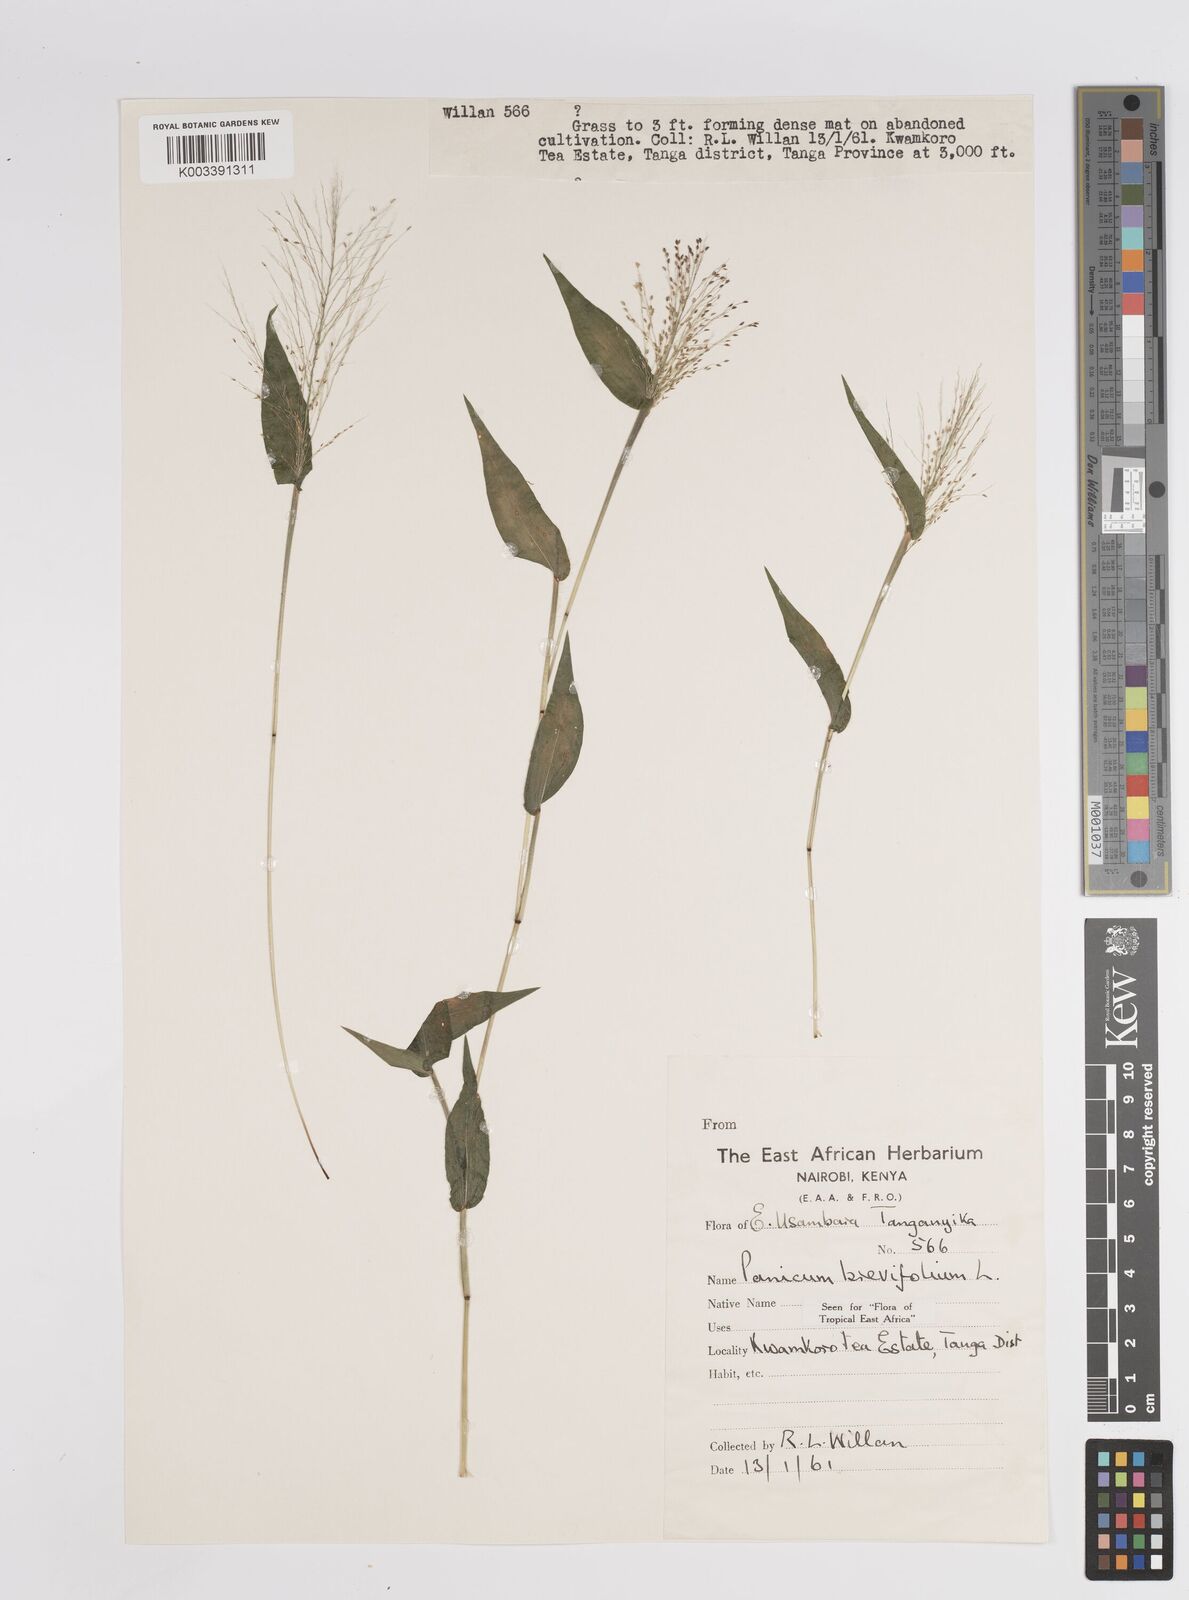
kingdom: Plantae
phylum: Tracheophyta
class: Liliopsida
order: Poales
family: Poaceae
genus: Panicum
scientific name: Panicum brevifolium
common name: Shortleaf panic grass
